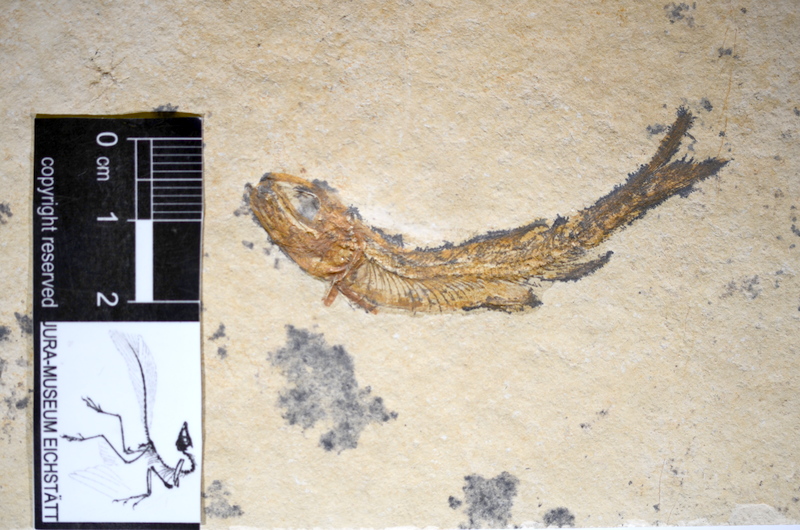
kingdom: Animalia
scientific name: Animalia
